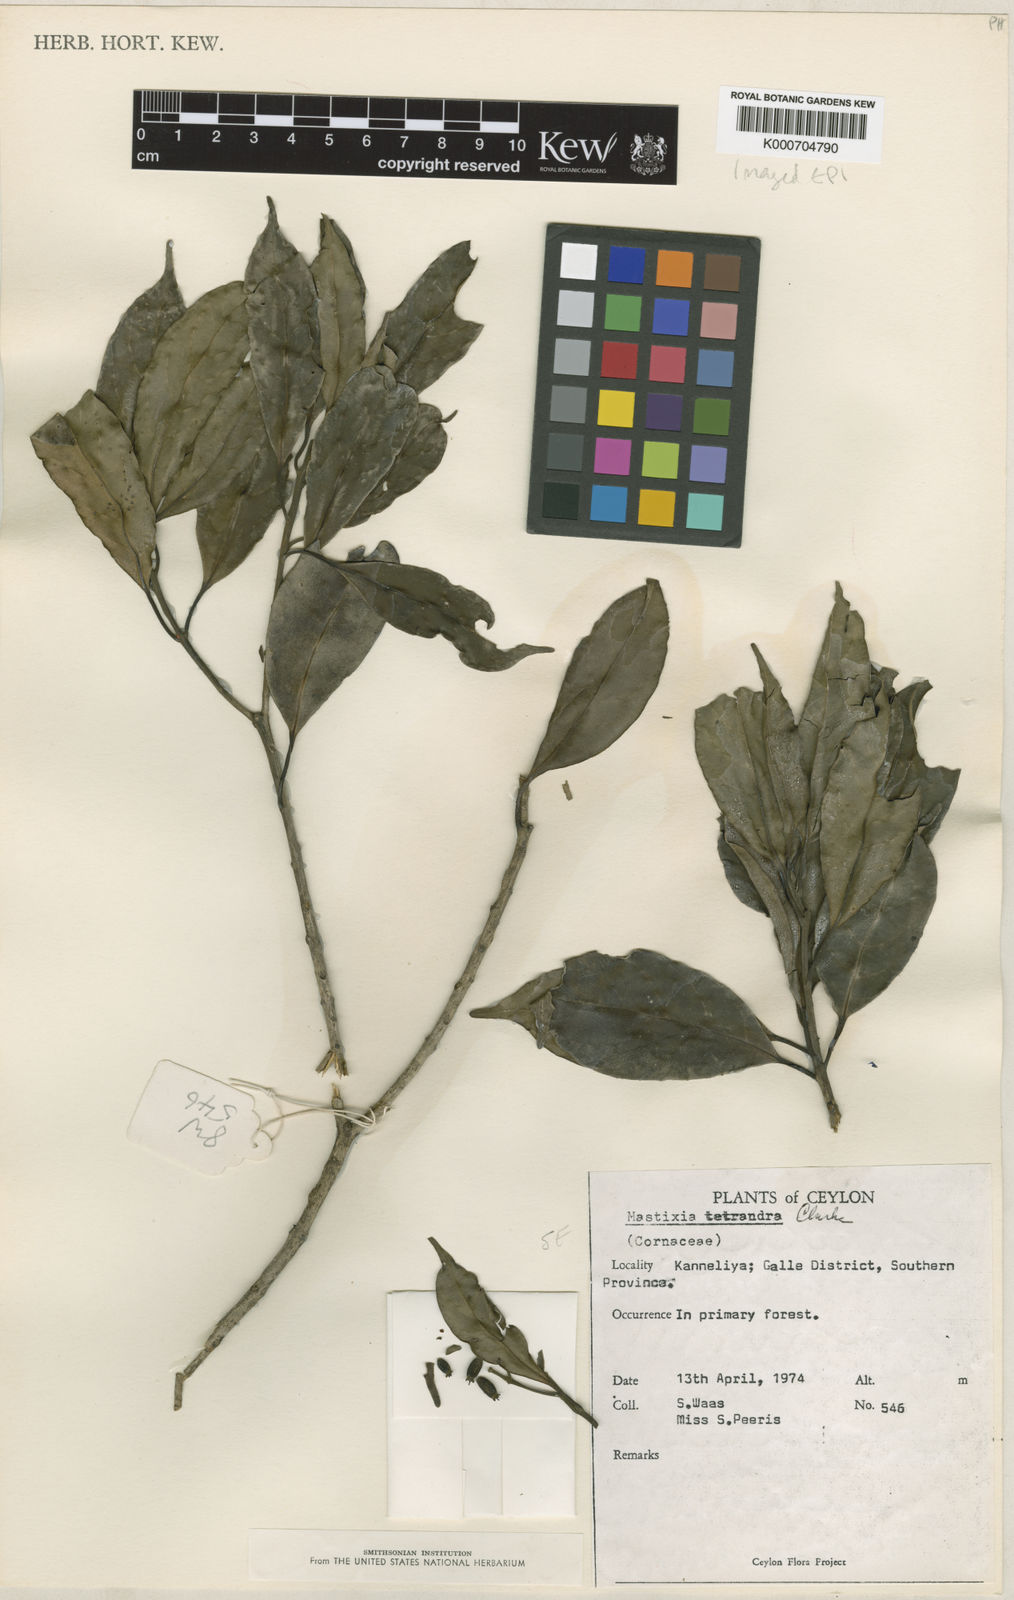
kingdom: Plantae
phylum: Tracheophyta
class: Magnoliopsida
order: Cornales
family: Nyssaceae
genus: Mastixia
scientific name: Mastixia tetrandra
